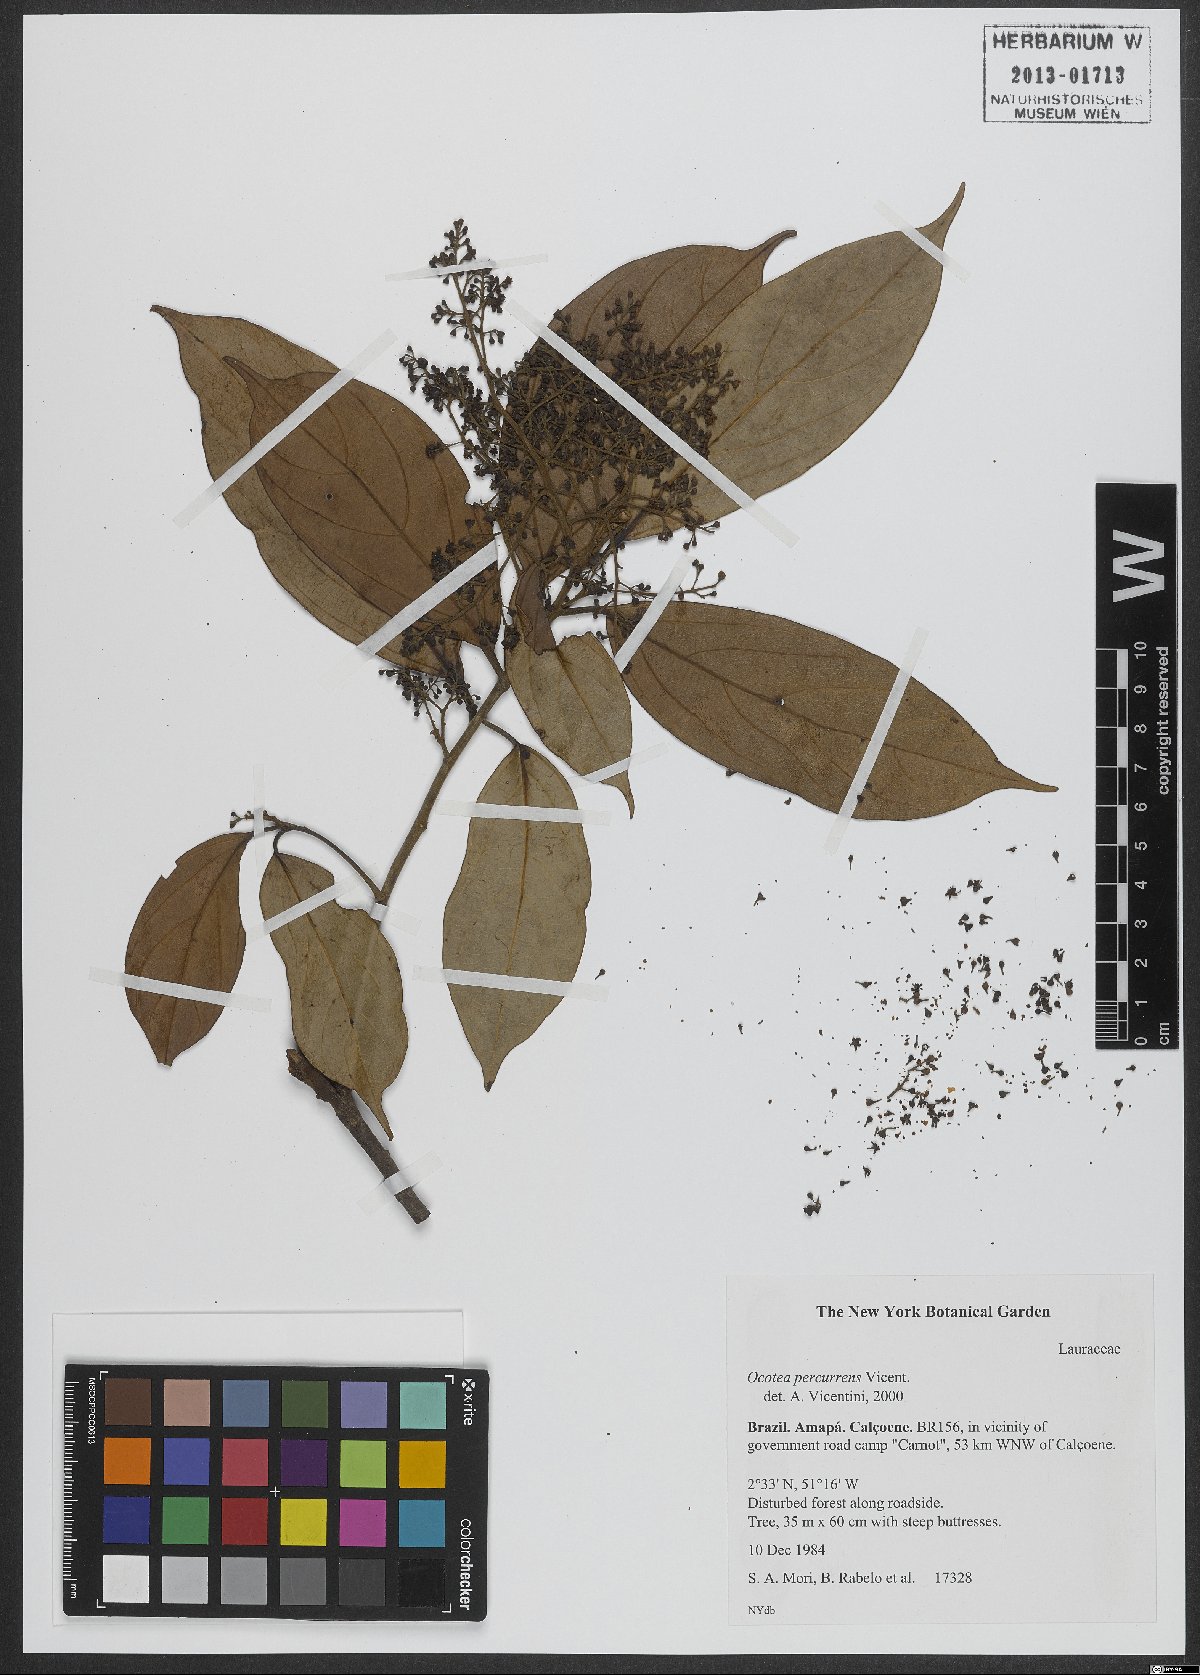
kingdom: Plantae
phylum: Tracheophyta
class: Magnoliopsida
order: Laurales
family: Lauraceae
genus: Ocotea
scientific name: Ocotea percurrens
